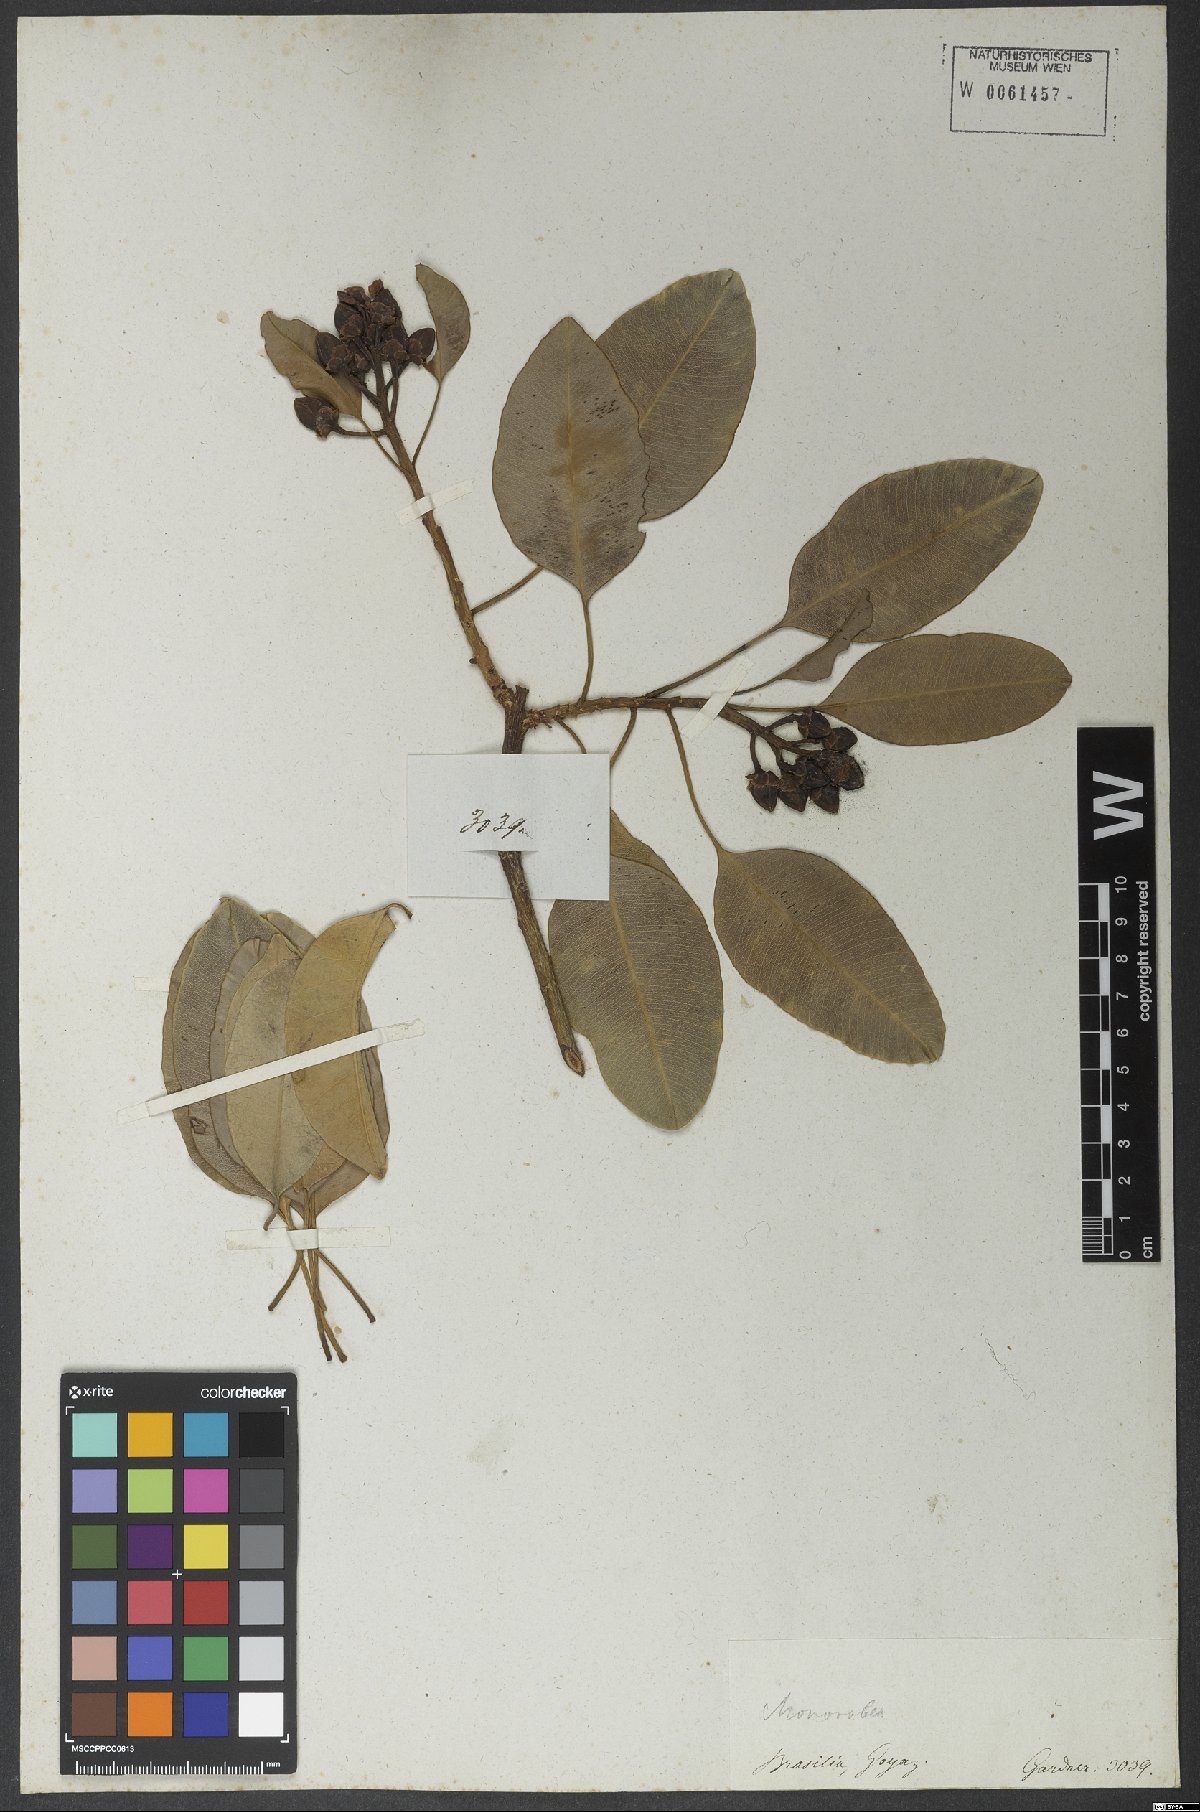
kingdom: Plantae
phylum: Tracheophyta
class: Magnoliopsida
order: Malpighiales
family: Calophyllaceae
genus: Kielmeyera
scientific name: Kielmeyera petiolaris
